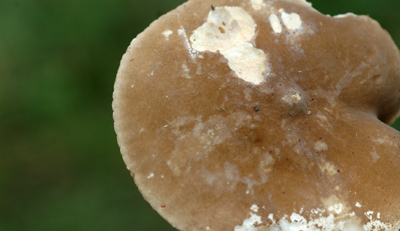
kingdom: Fungi
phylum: Basidiomycota
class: Agaricomycetes
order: Russulales
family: Russulaceae
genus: Lactarius
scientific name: Lactarius ruginosus
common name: gråbrun mælkehat
